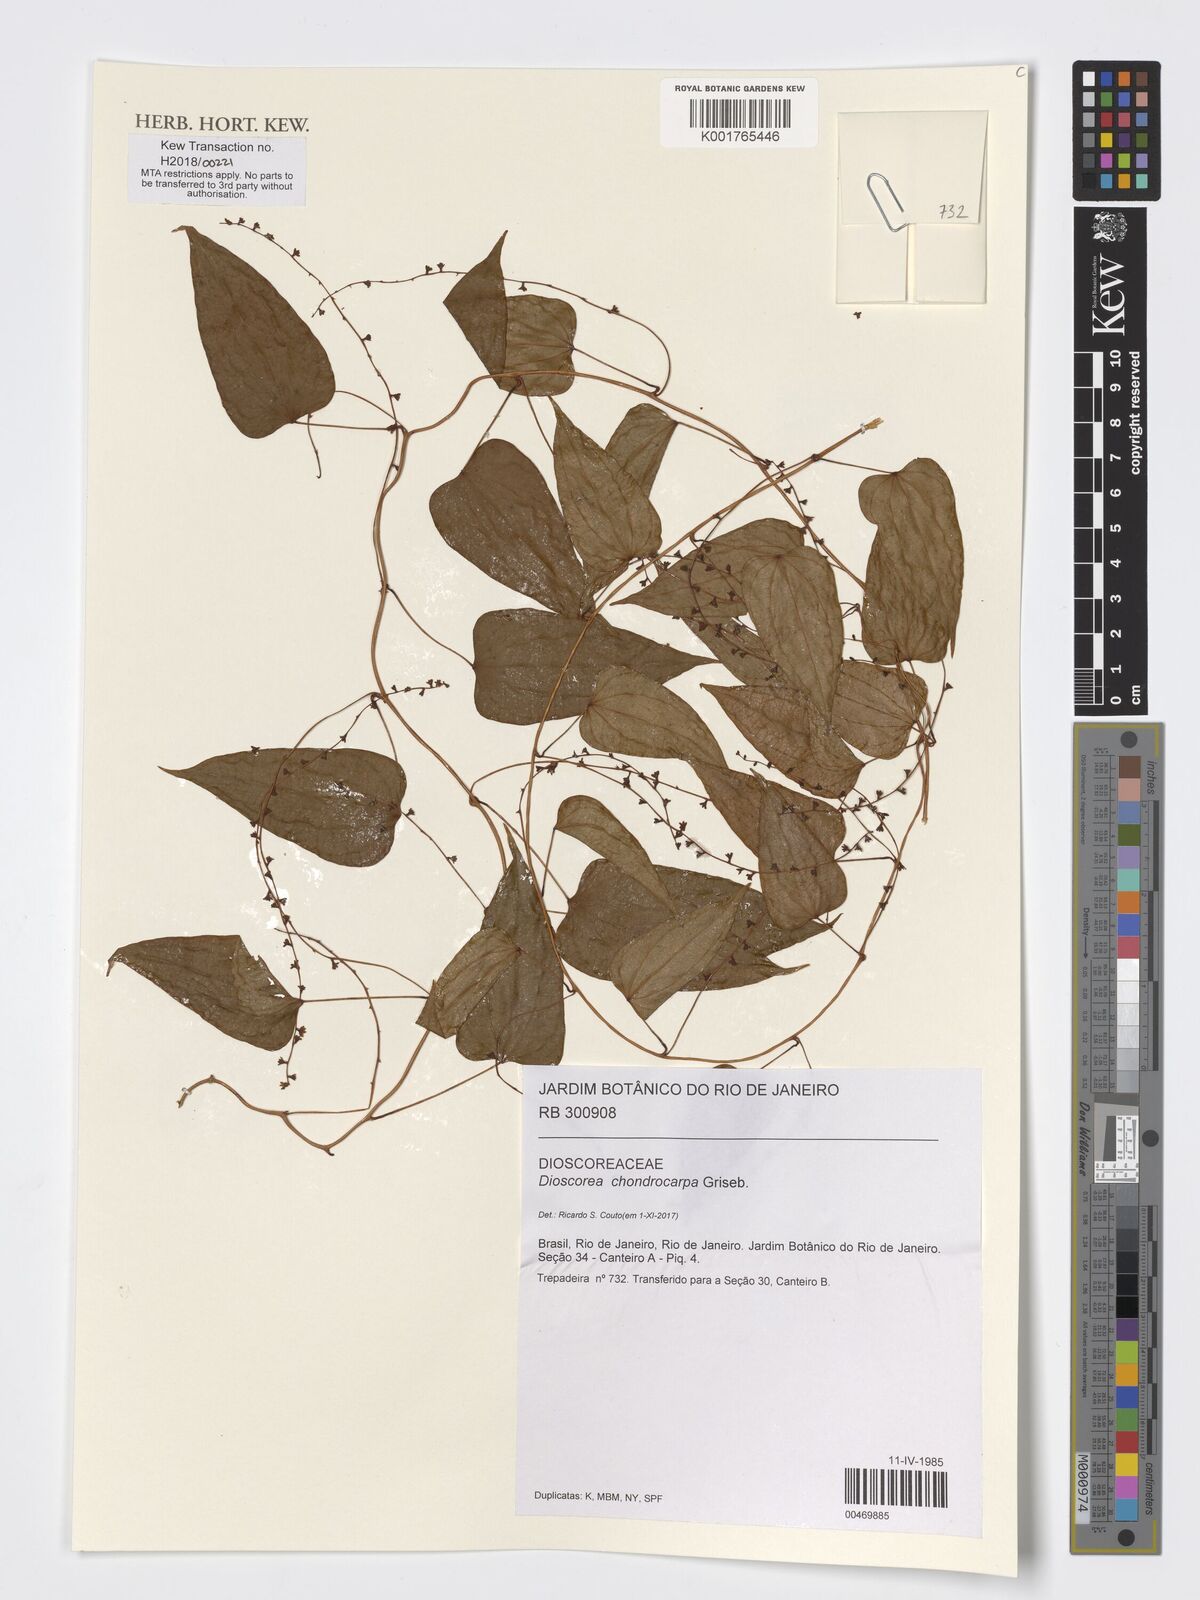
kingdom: Plantae
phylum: Tracheophyta
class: Liliopsida
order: Dioscoreales
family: Dioscoreaceae
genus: Dioscorea
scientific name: Dioscorea chondrocarpa
